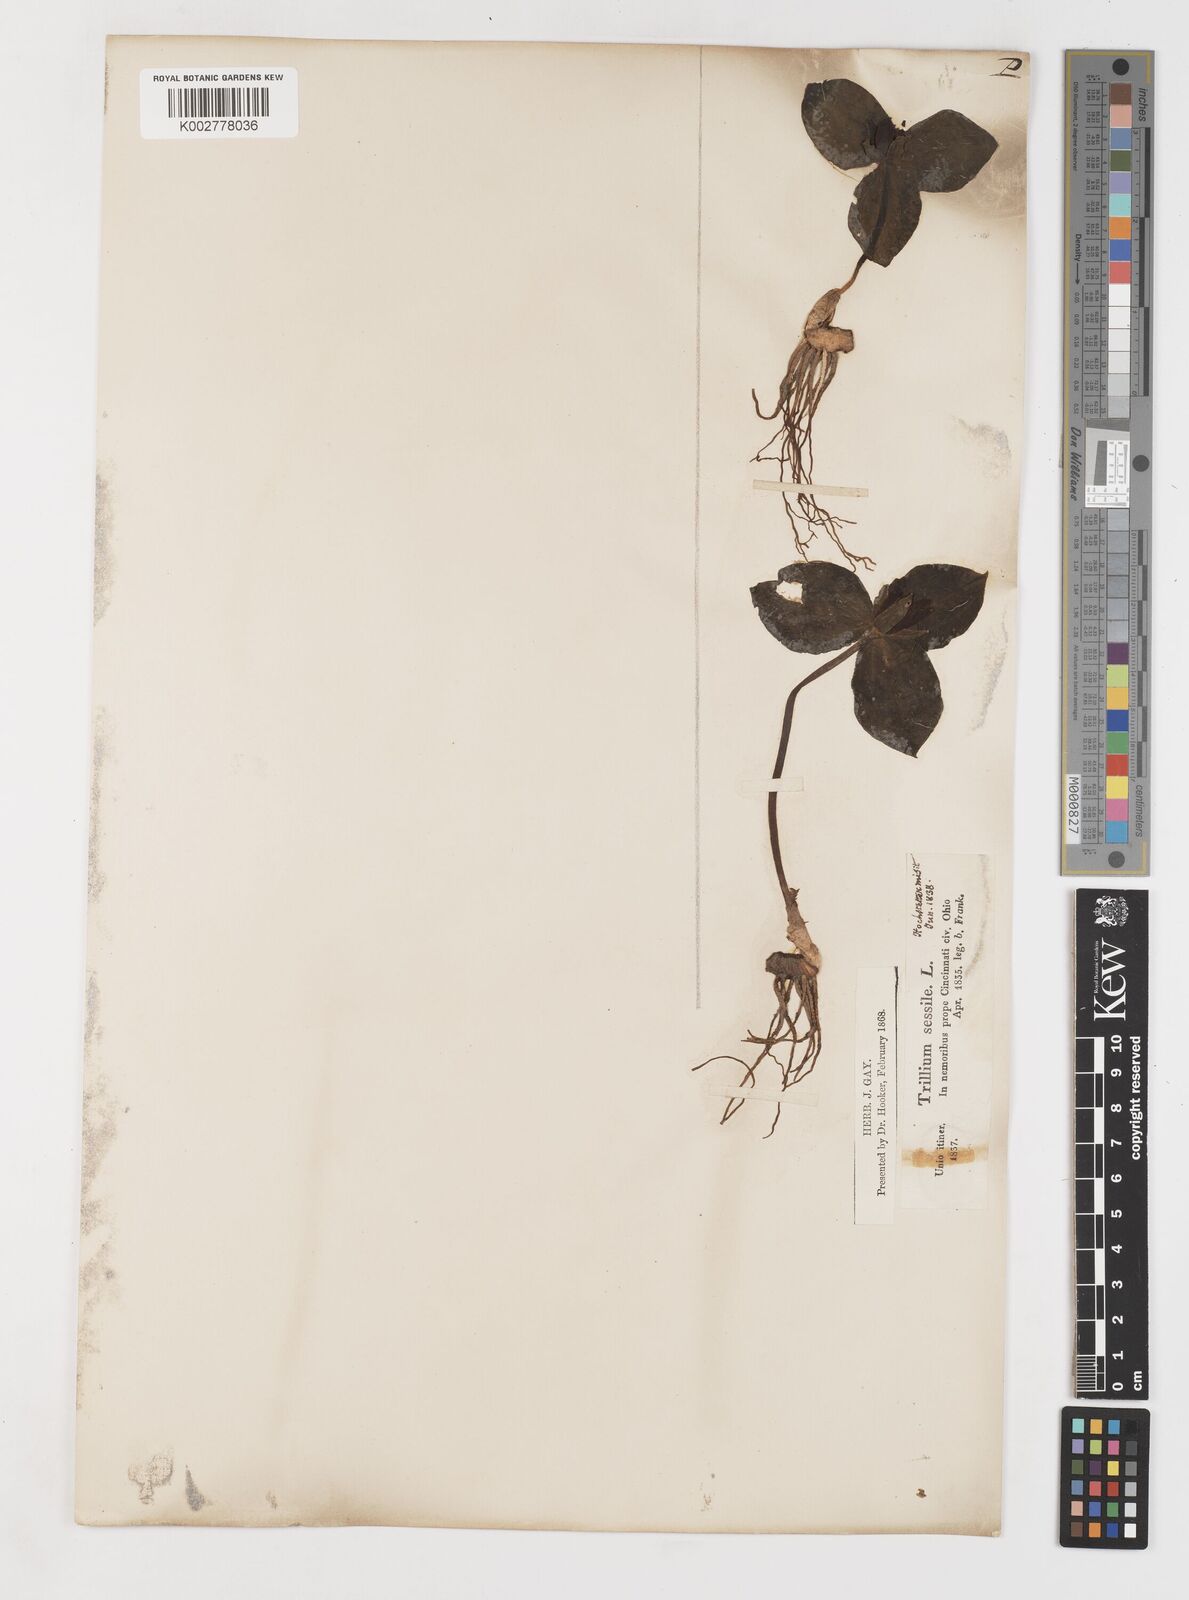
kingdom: Plantae
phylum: Tracheophyta
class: Liliopsida
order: Liliales
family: Melanthiaceae
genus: Trillium
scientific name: Trillium sessile
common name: Sessile trillium
